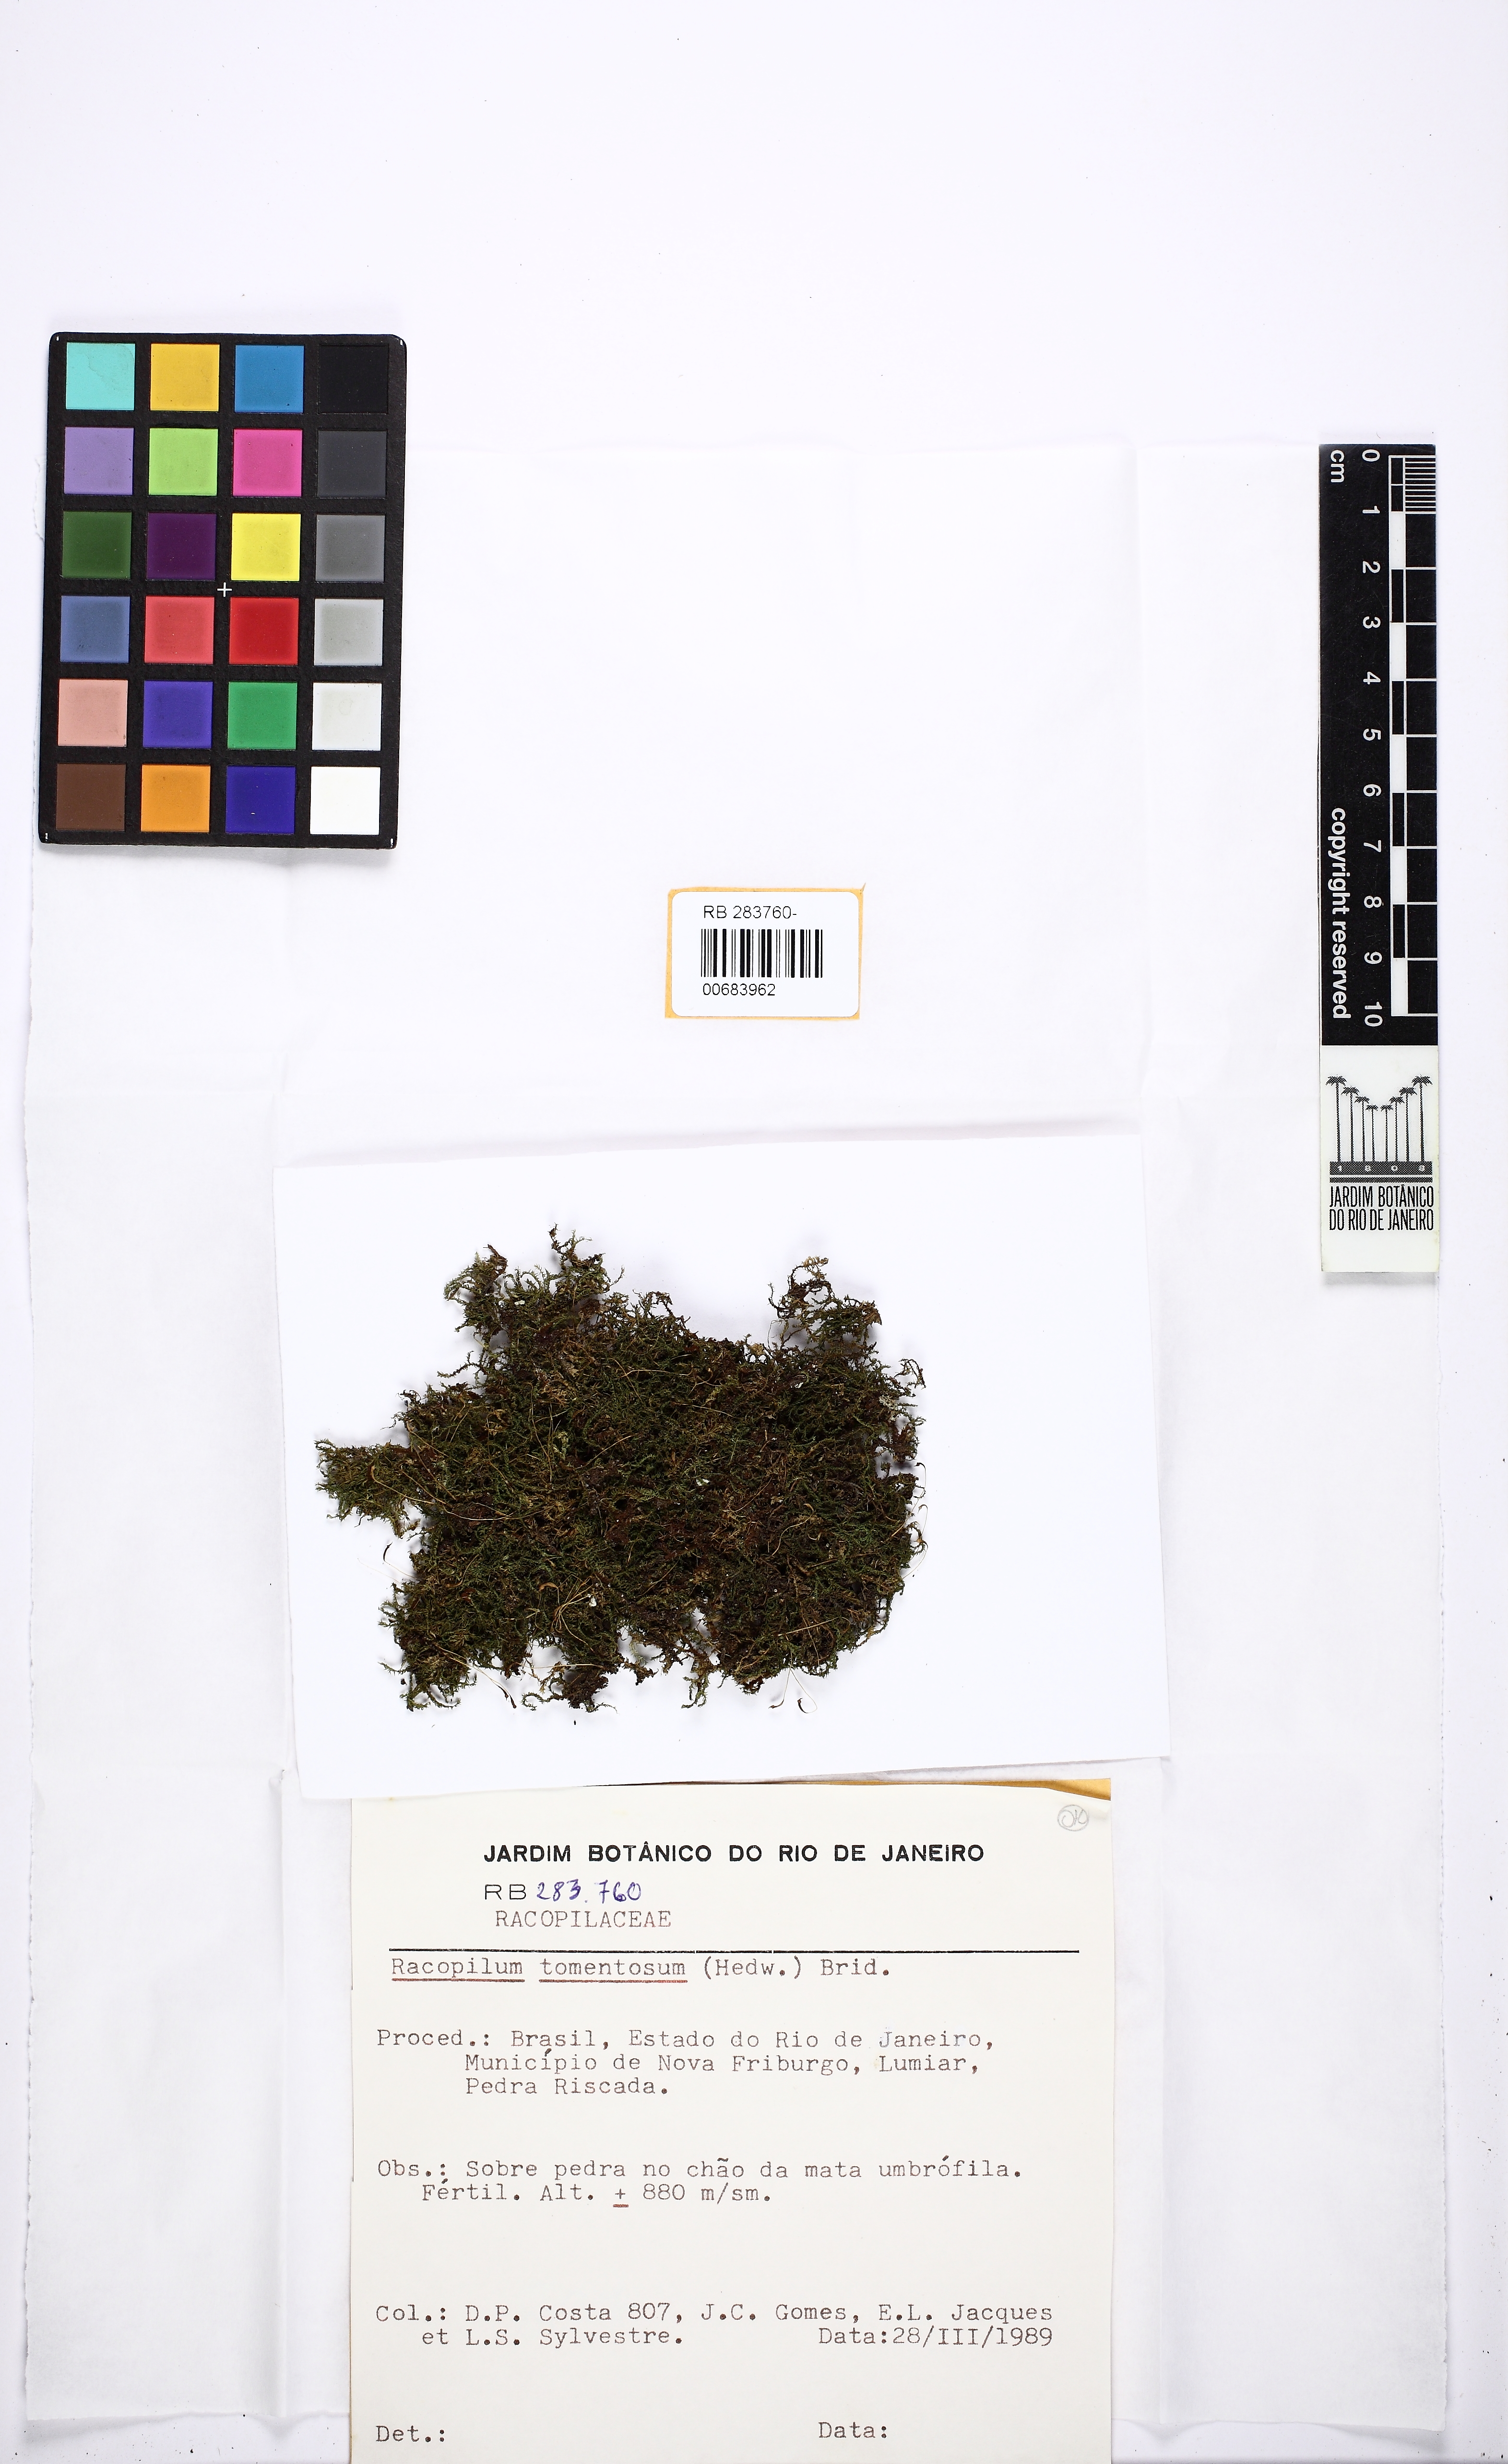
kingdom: Plantae
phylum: Bryophyta
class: Bryopsida
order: Hypnodendrales
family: Racopilaceae
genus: Racopilum
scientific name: Racopilum tomentosum
